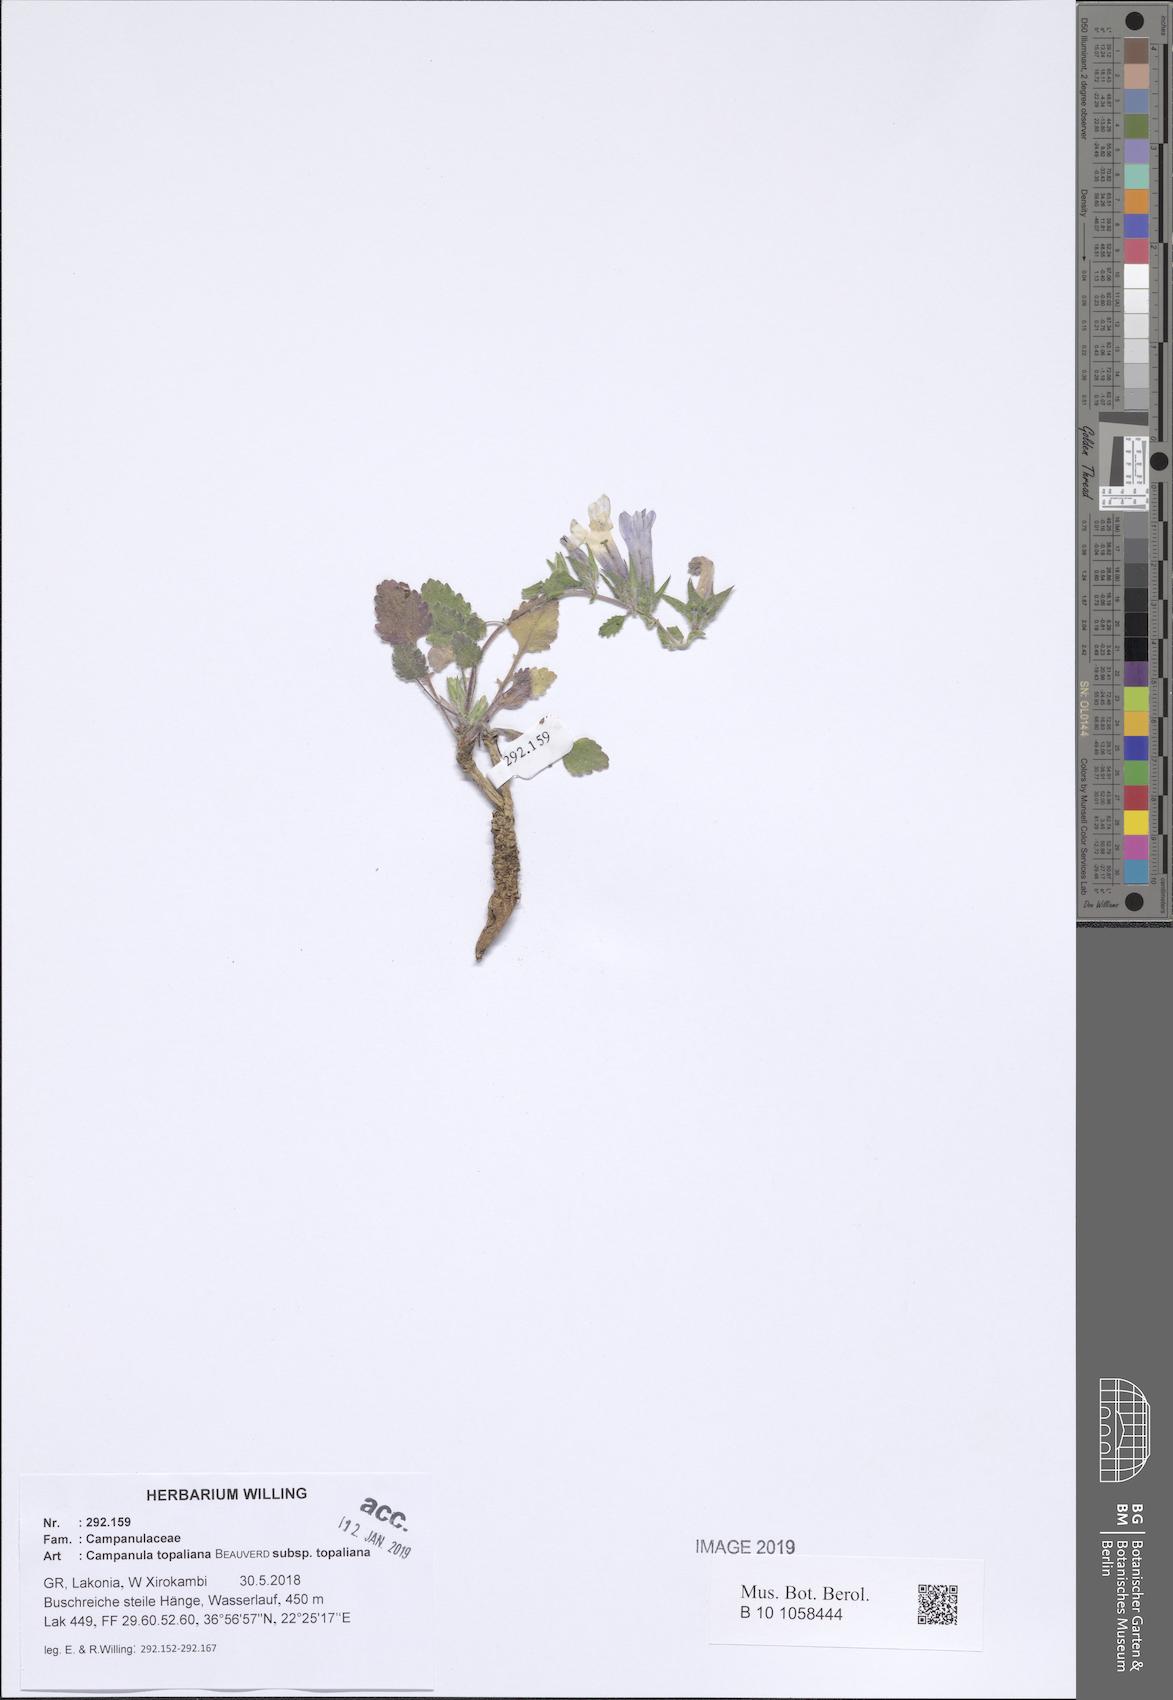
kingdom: Plantae
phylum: Tracheophyta
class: Magnoliopsida
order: Asterales
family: Campanulaceae
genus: Campanula
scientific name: Campanula topaliana
